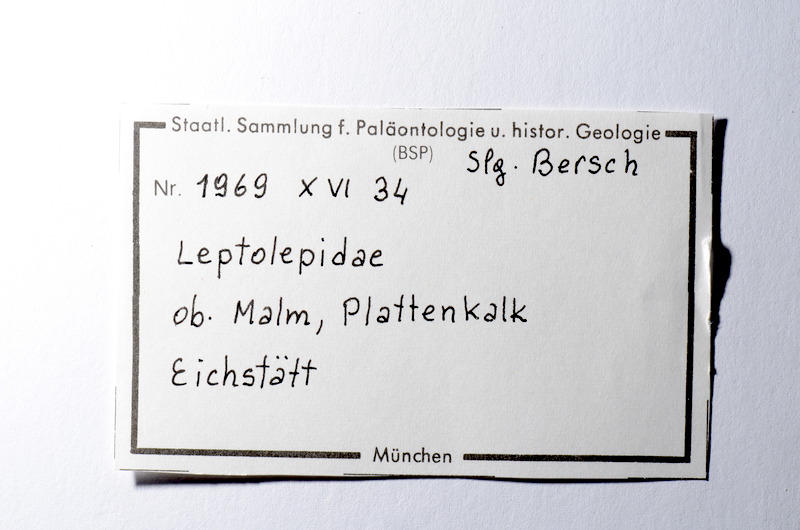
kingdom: Animalia
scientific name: Animalia
